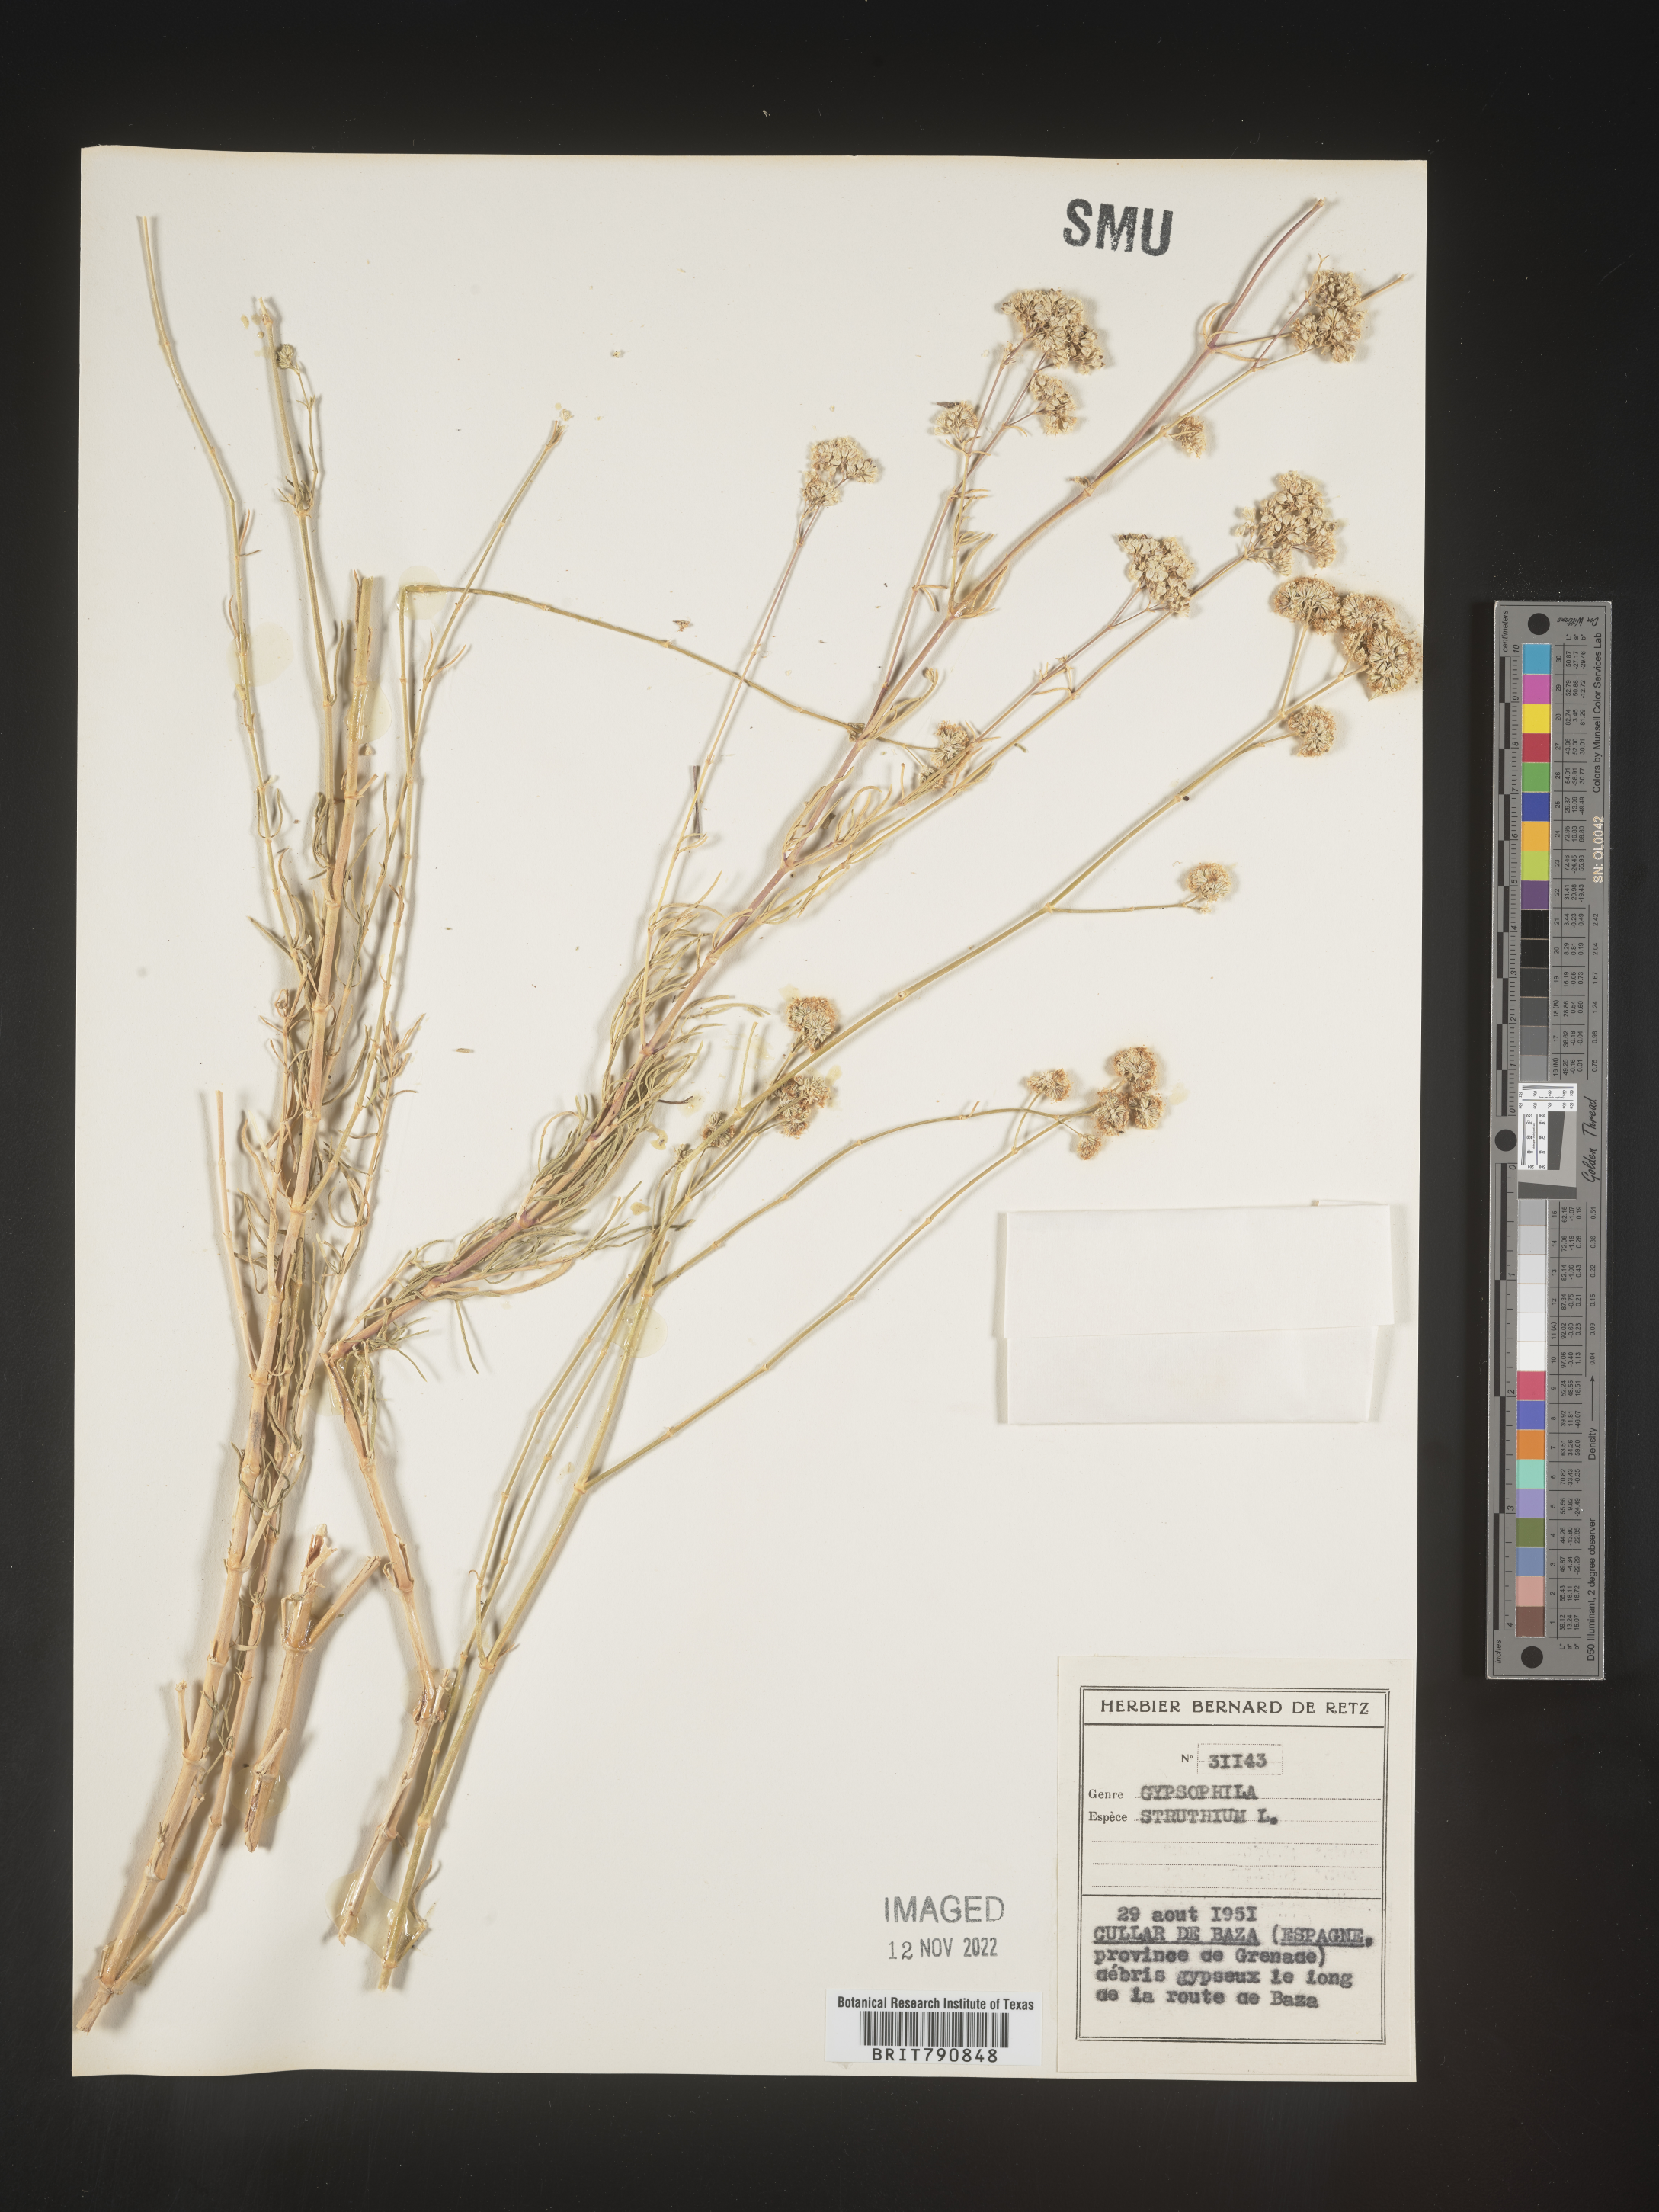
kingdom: Plantae
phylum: Tracheophyta
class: Magnoliopsida
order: Caryophyllales
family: Caryophyllaceae
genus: Gypsophila
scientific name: Gypsophila
